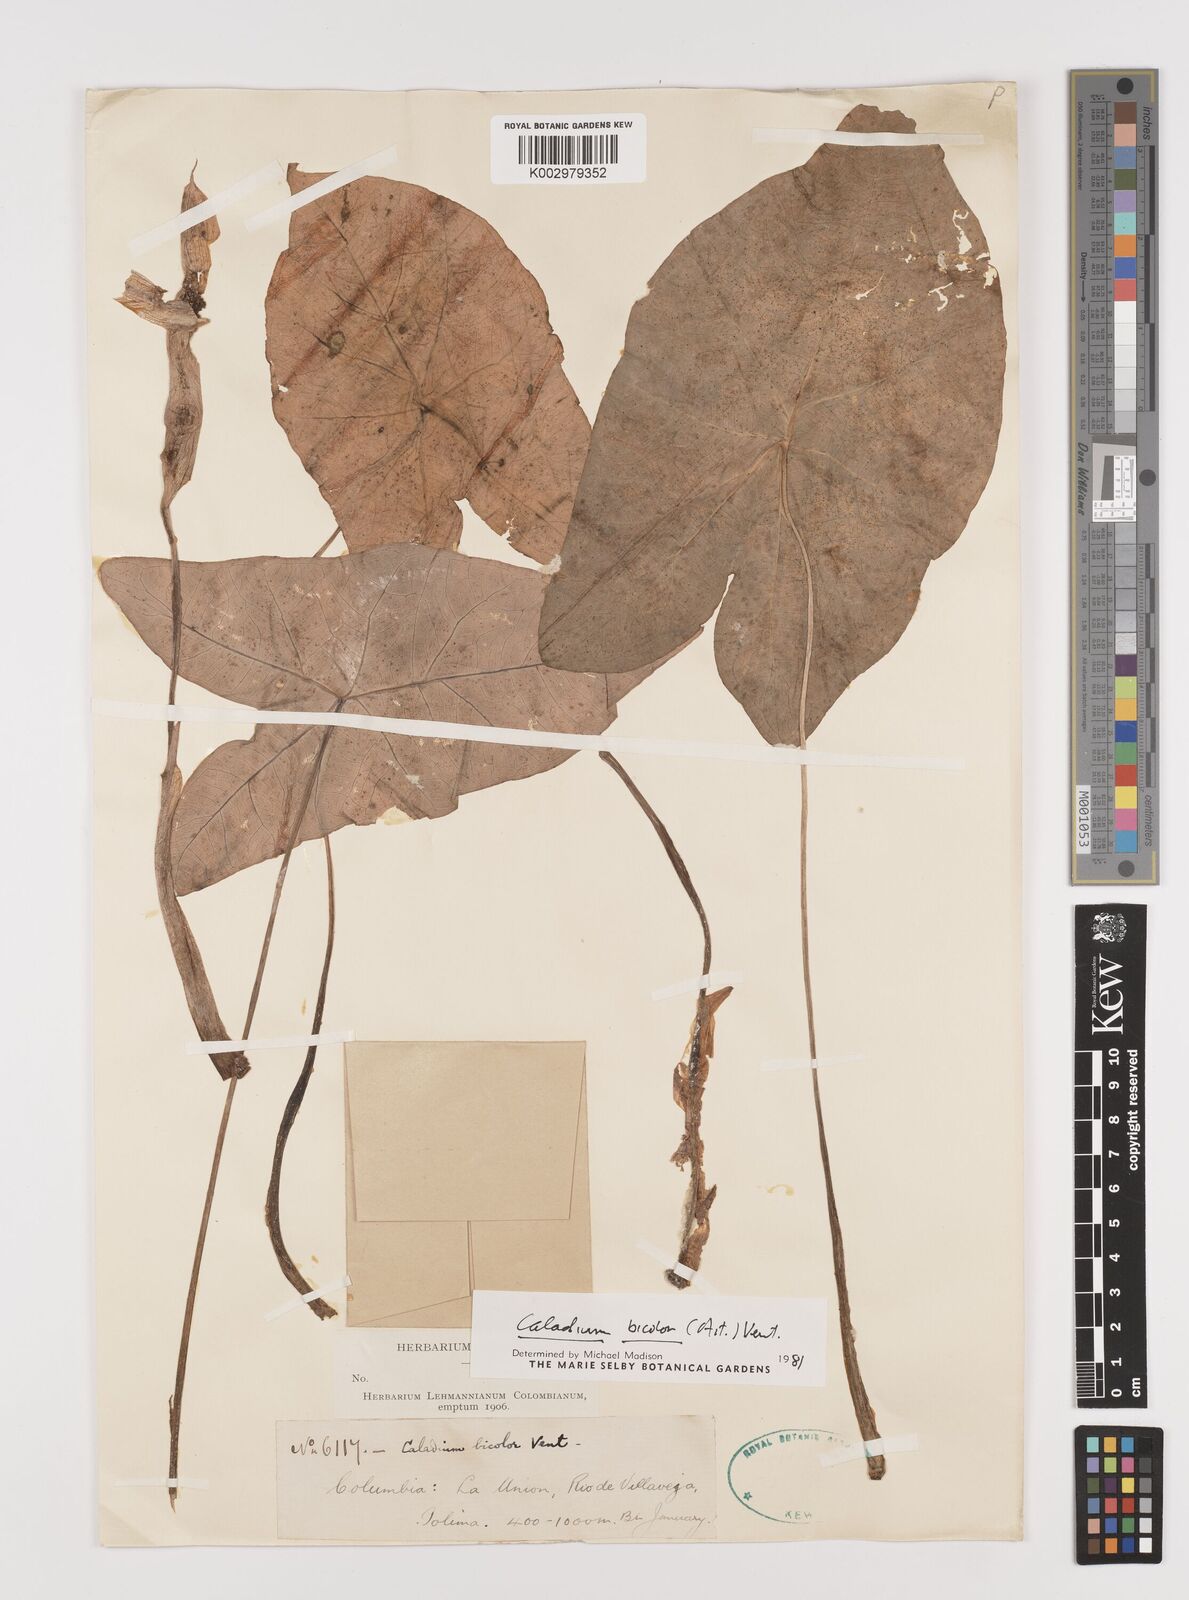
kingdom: Plantae
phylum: Tracheophyta
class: Liliopsida
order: Alismatales
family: Araceae
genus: Caladium
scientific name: Caladium bicolor
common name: Artist's pallet
